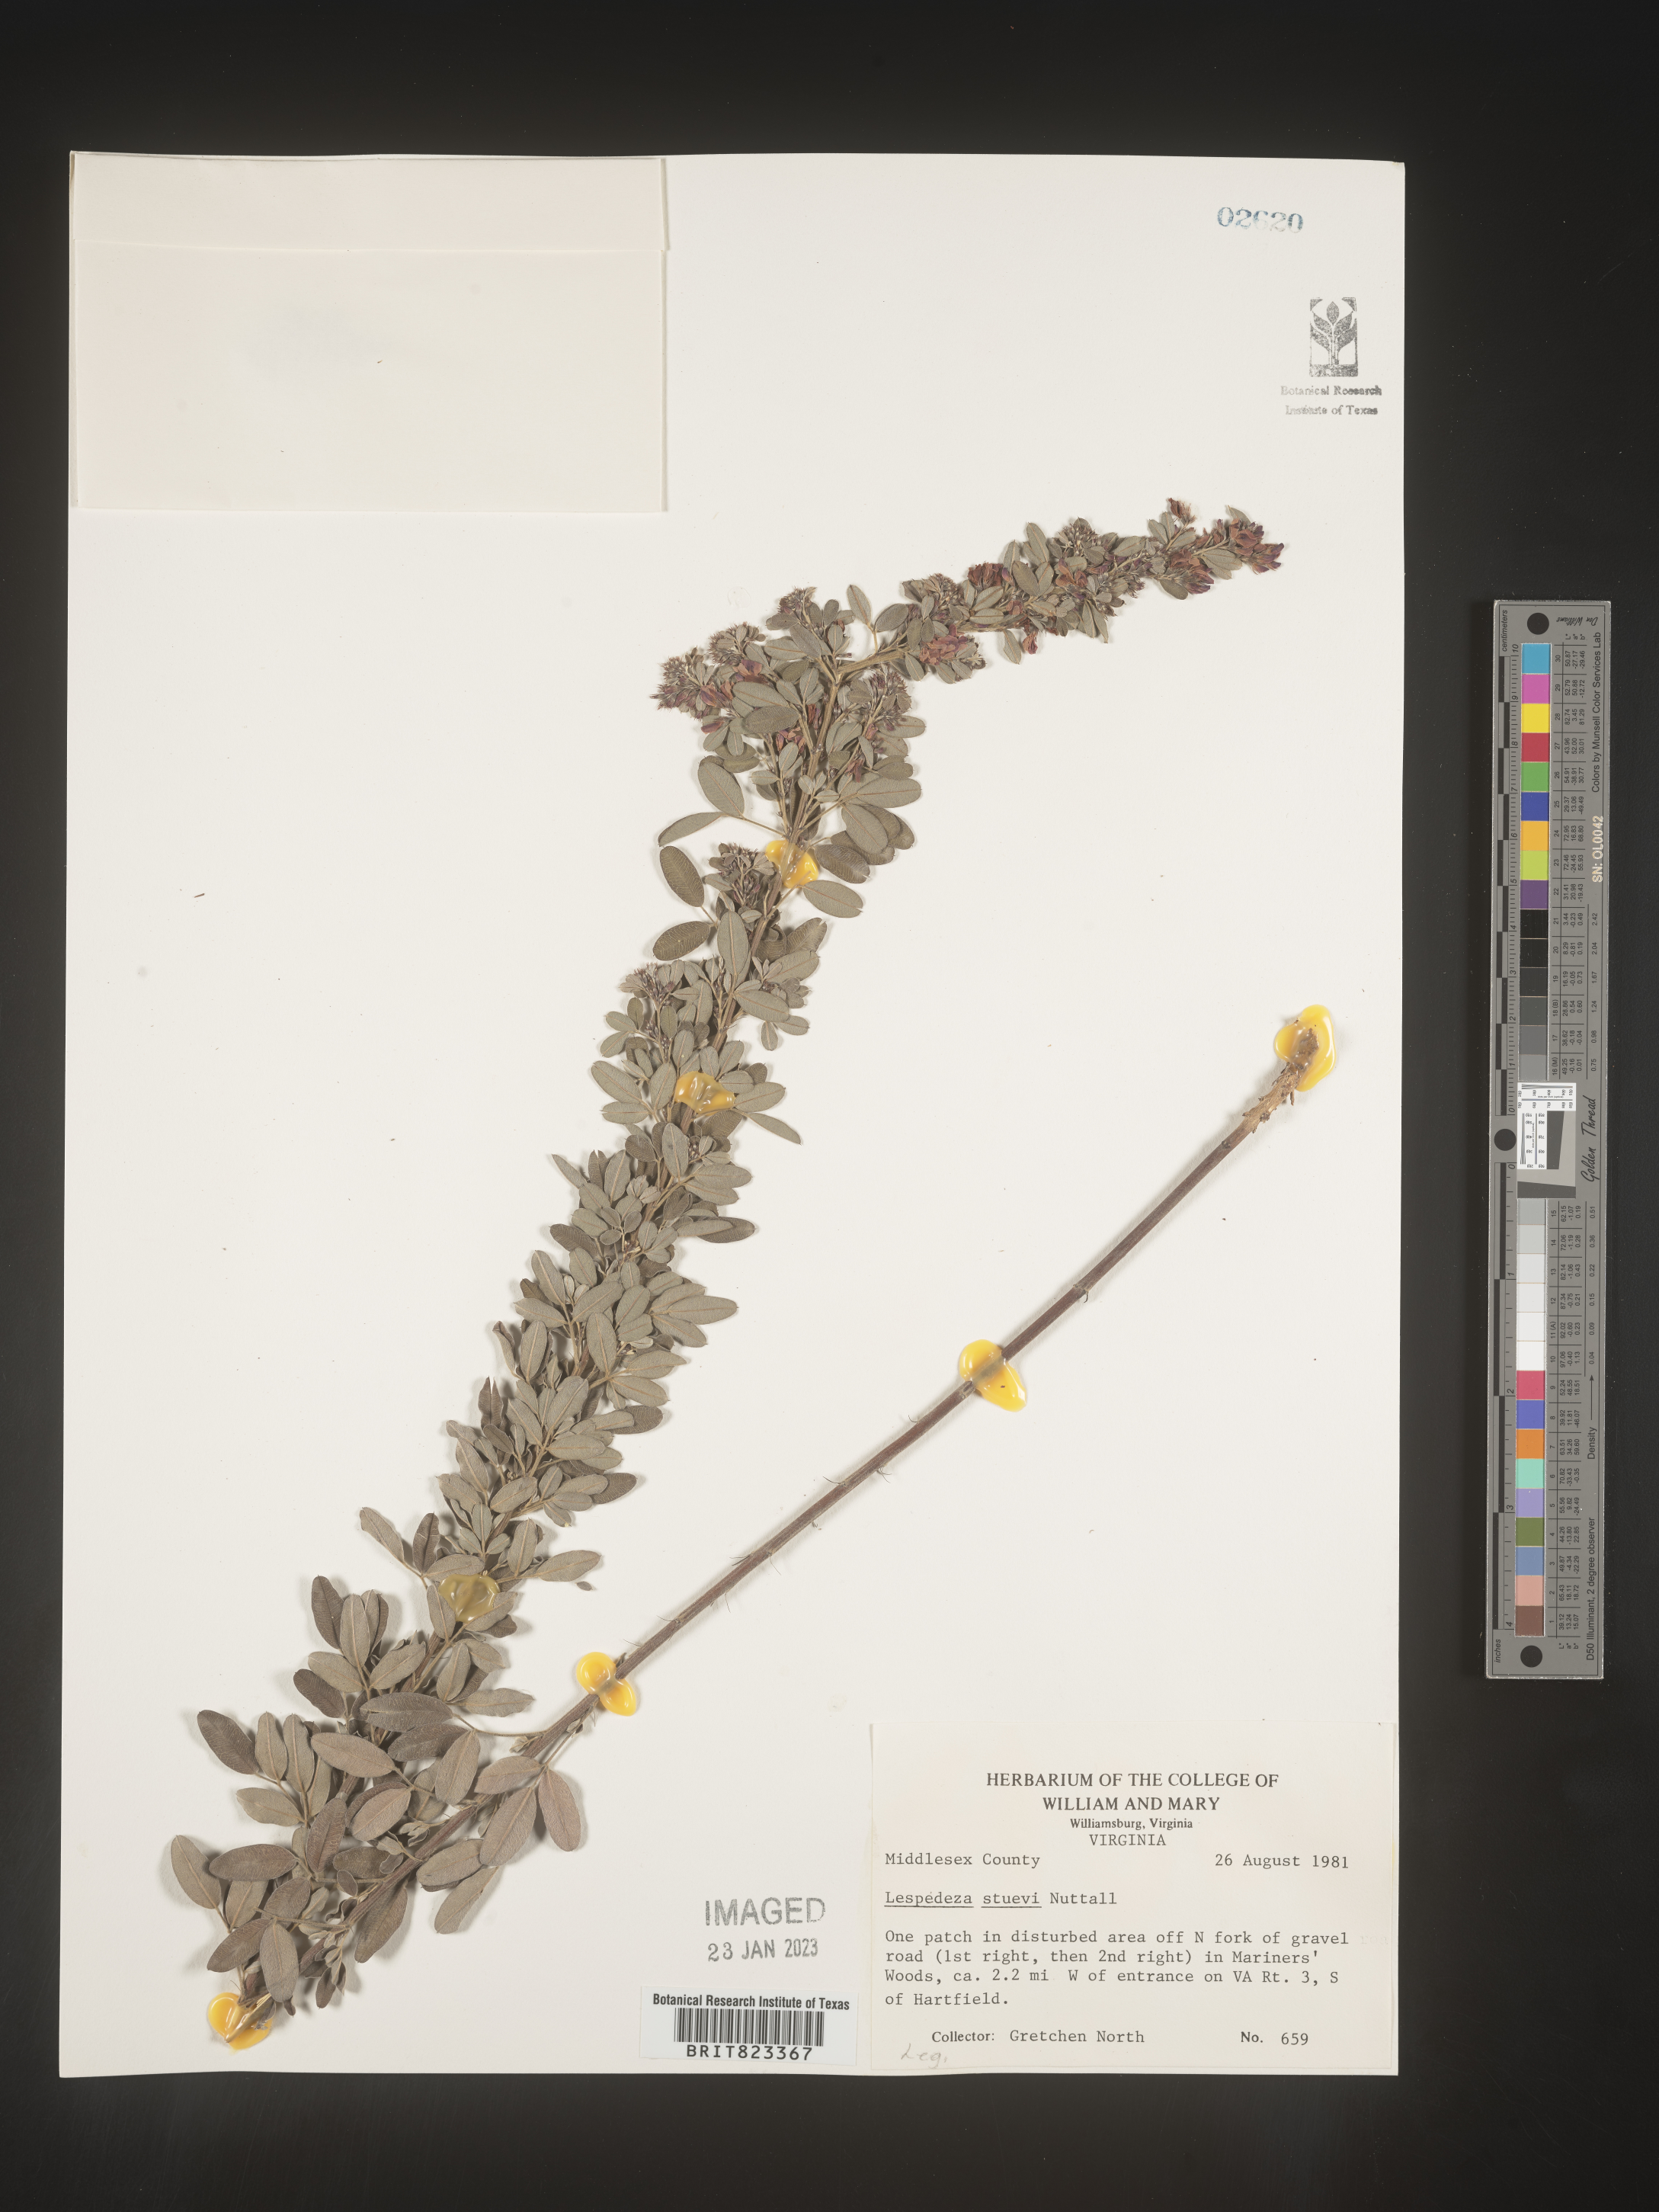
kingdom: Plantae
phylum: Tracheophyta
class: Magnoliopsida
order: Fabales
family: Fabaceae
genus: Lespedeza
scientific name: Lespedeza stuevei
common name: Tall bush-clover
